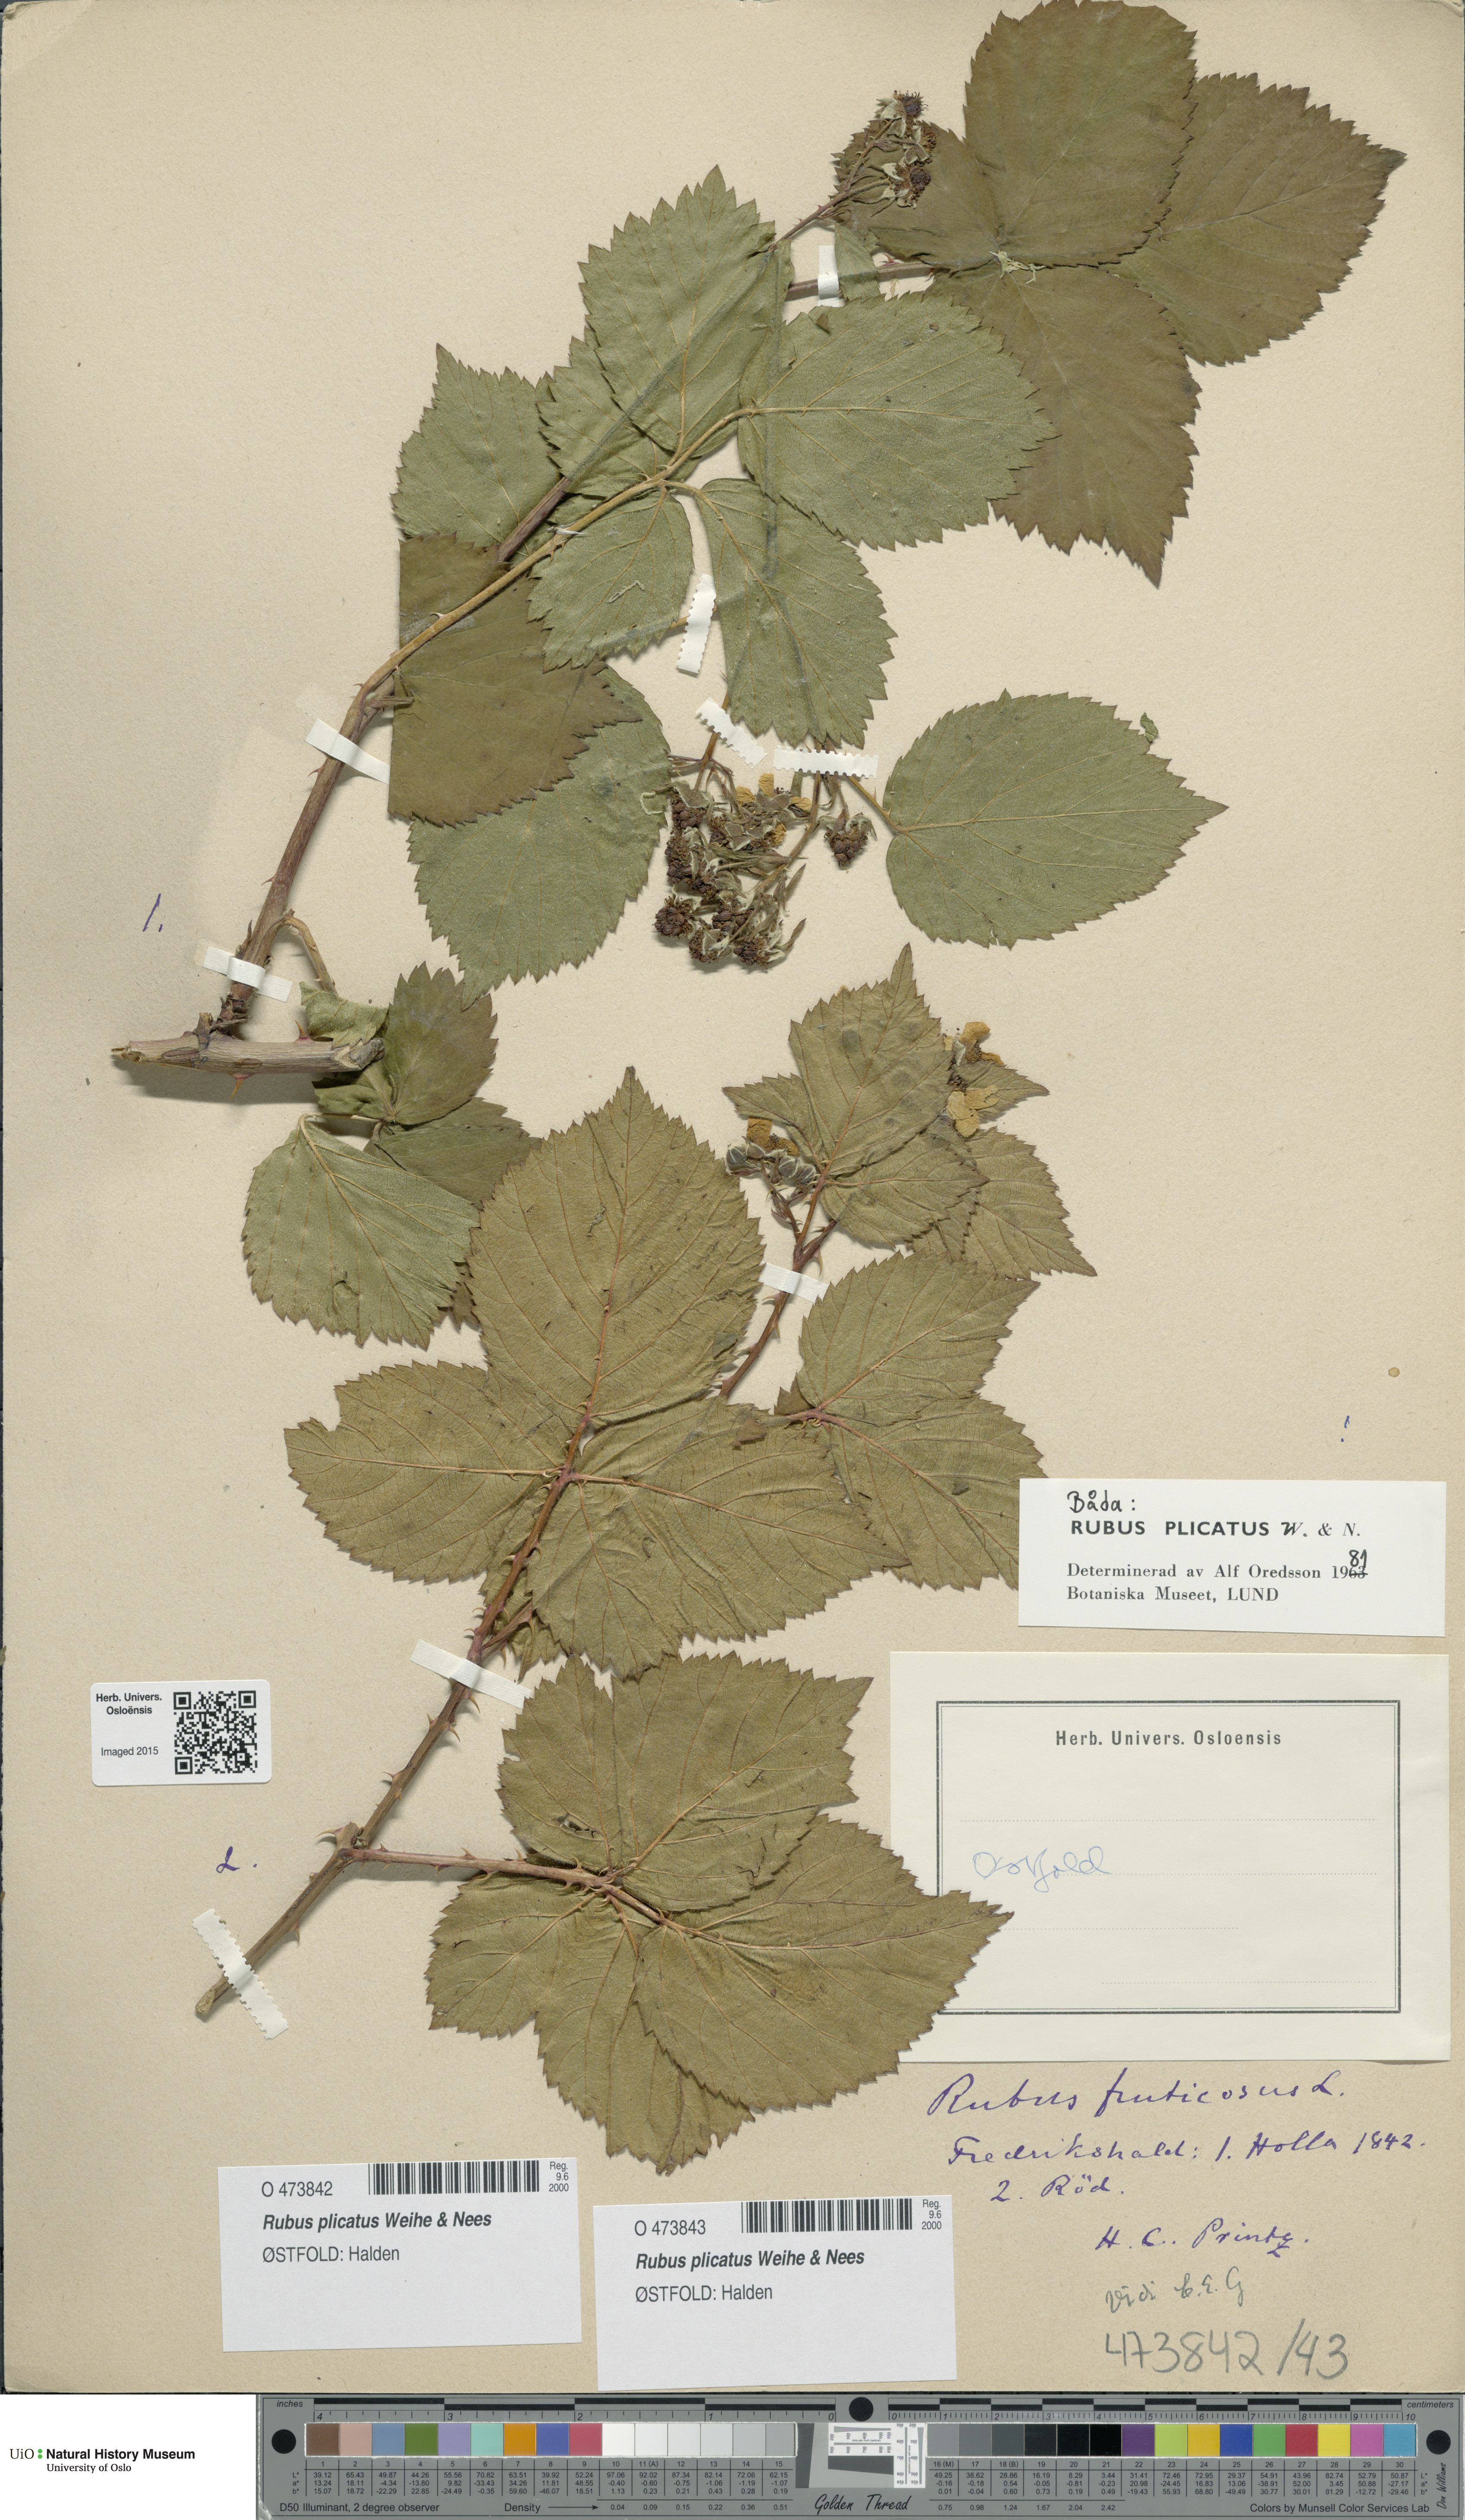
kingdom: Plantae
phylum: Tracheophyta
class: Magnoliopsida
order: Rosales
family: Rosaceae
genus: Rubus
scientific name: Rubus fruticosus
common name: Blackberry, bramble
